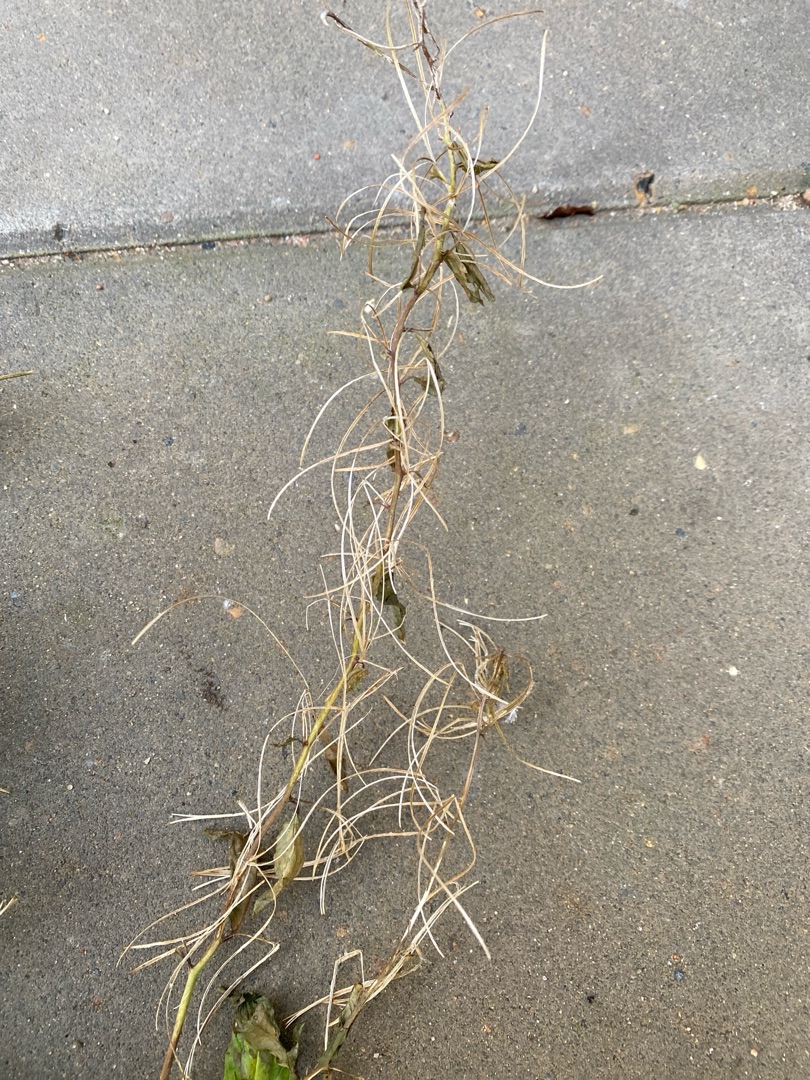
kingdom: Plantae
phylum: Tracheophyta
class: Magnoliopsida
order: Myrtales
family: Onagraceae
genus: Epilobium
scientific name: Epilobium
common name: Dueurtslægten
